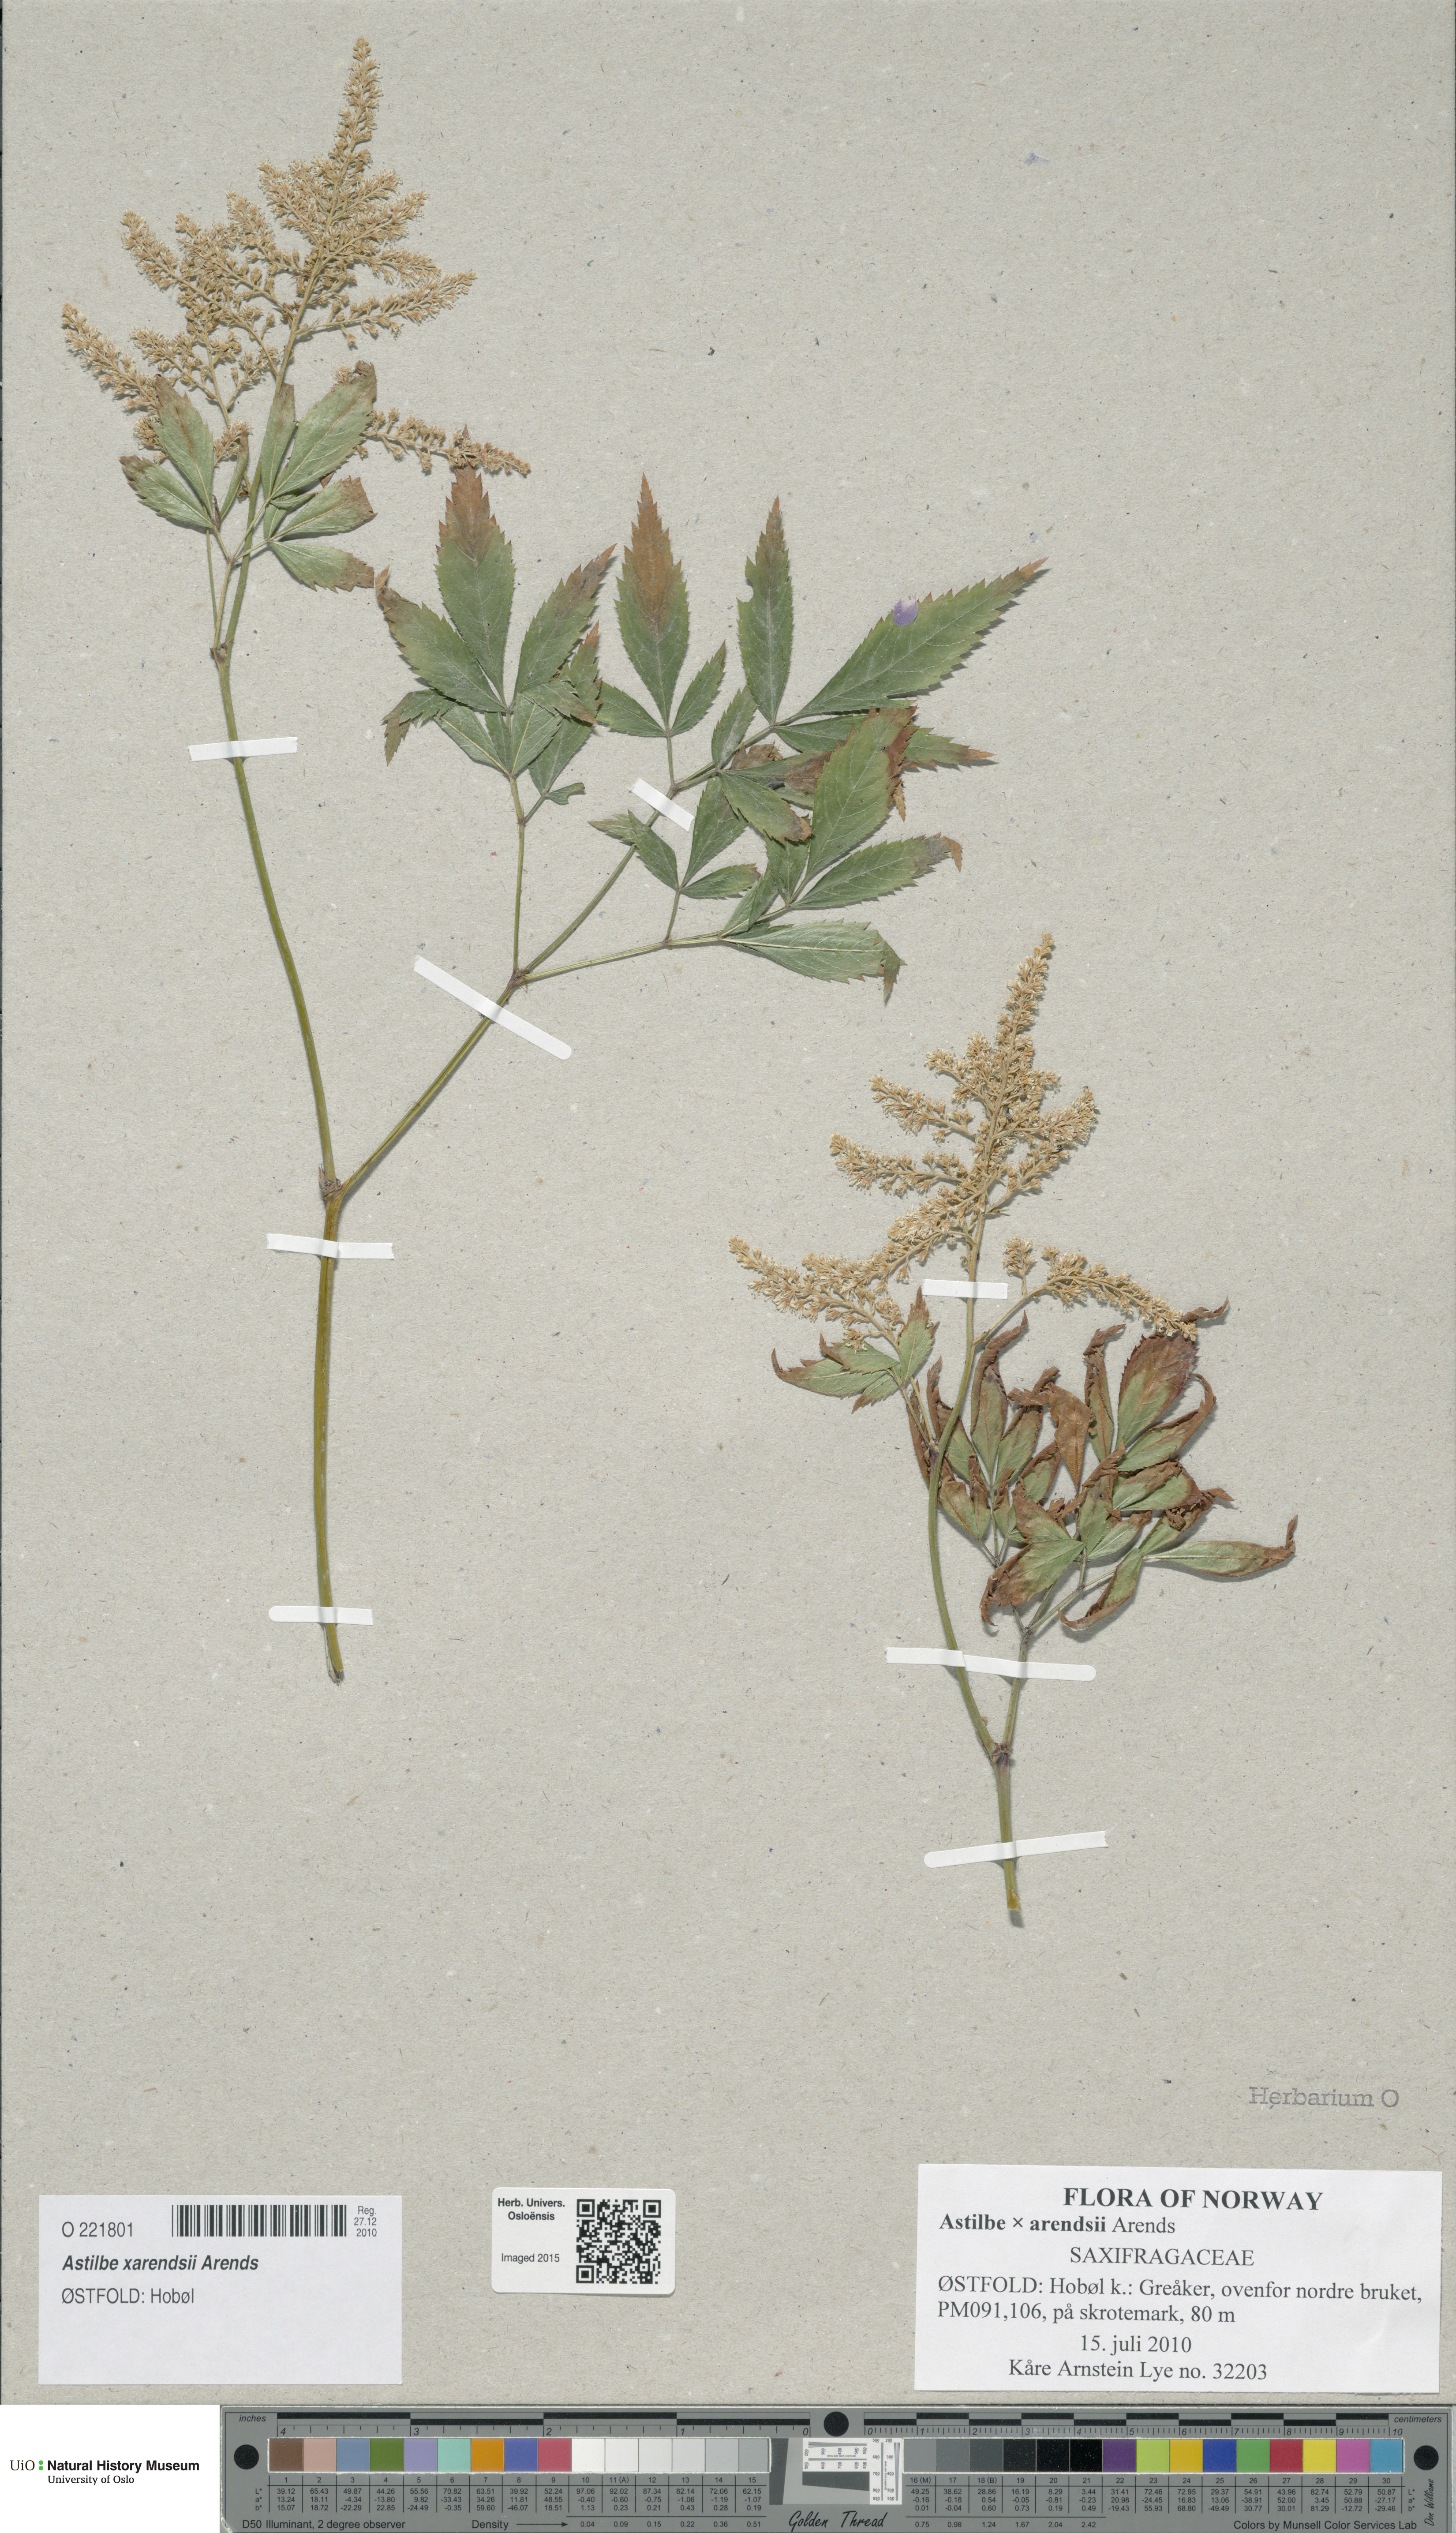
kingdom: Plantae
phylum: Tracheophyta
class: Magnoliopsida
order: Saxifragales
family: Saxifragaceae
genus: Astilbe
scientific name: Astilbe rosea
